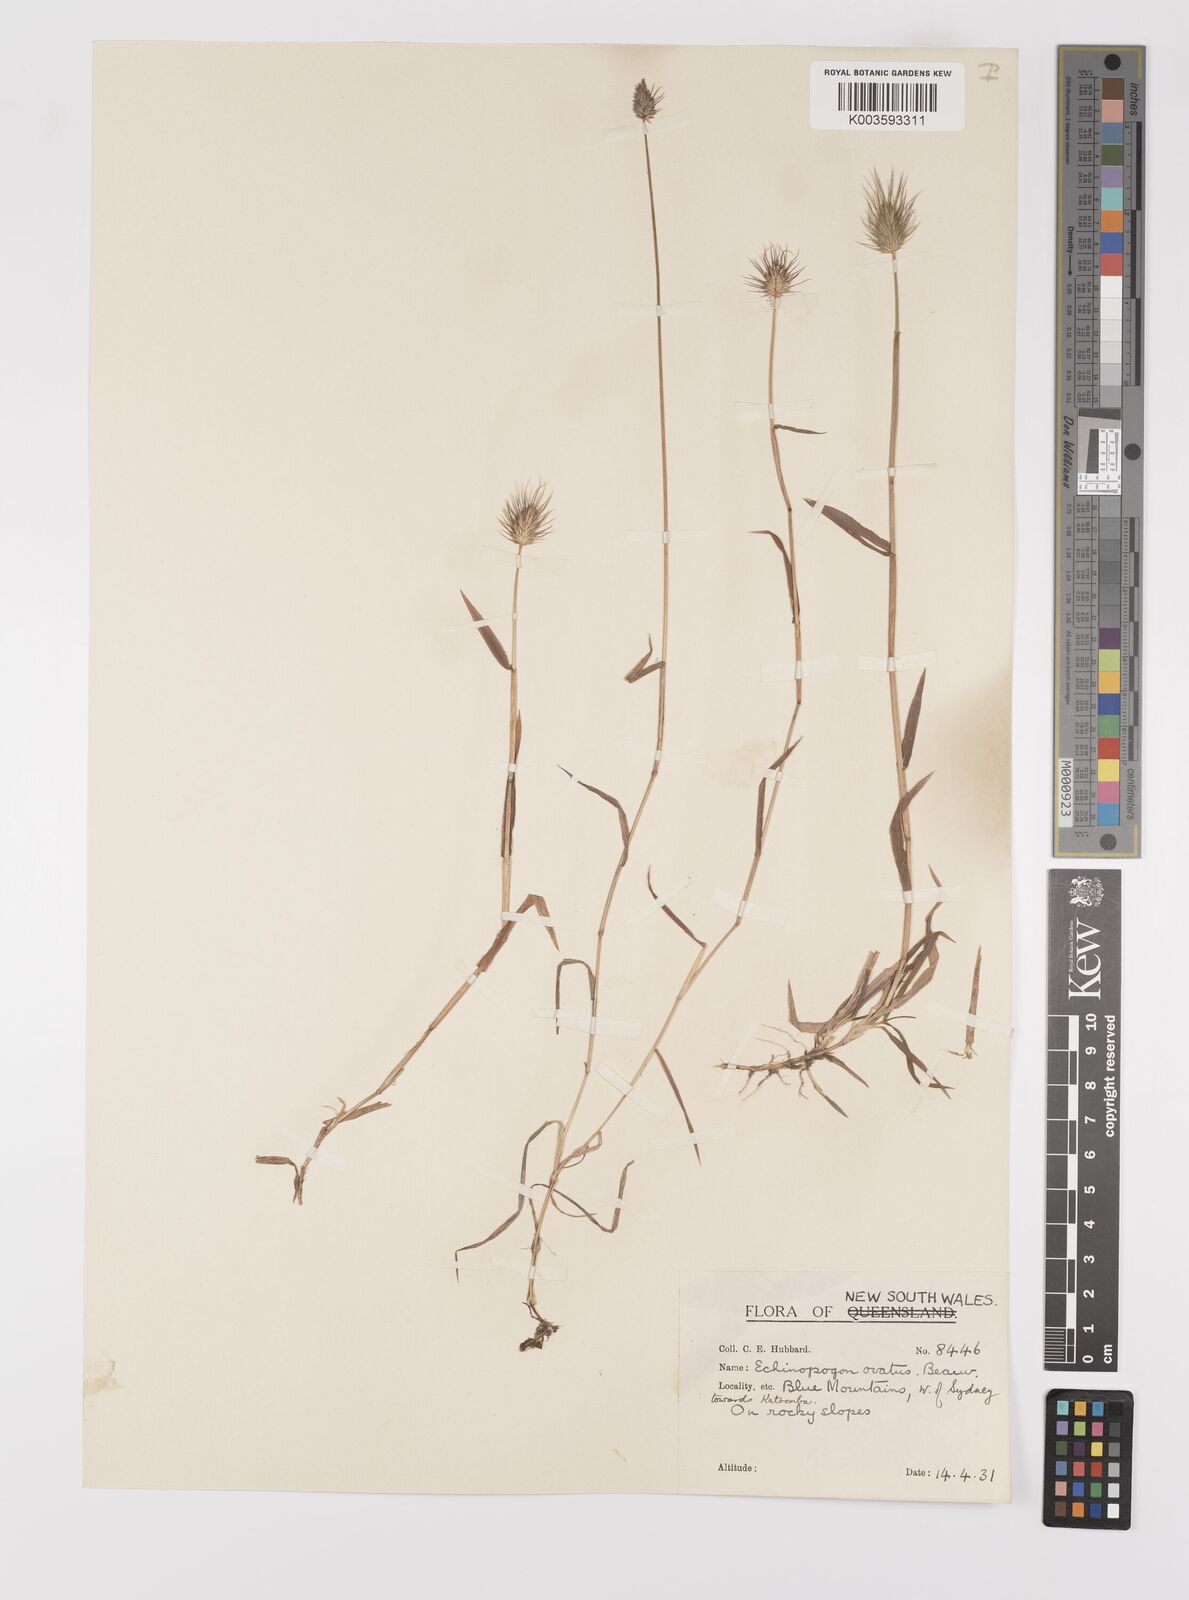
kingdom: Plantae
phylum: Tracheophyta
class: Liliopsida
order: Poales
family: Poaceae
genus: Echinopogon
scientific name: Echinopogon ovatus
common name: Hedgehog-grass
